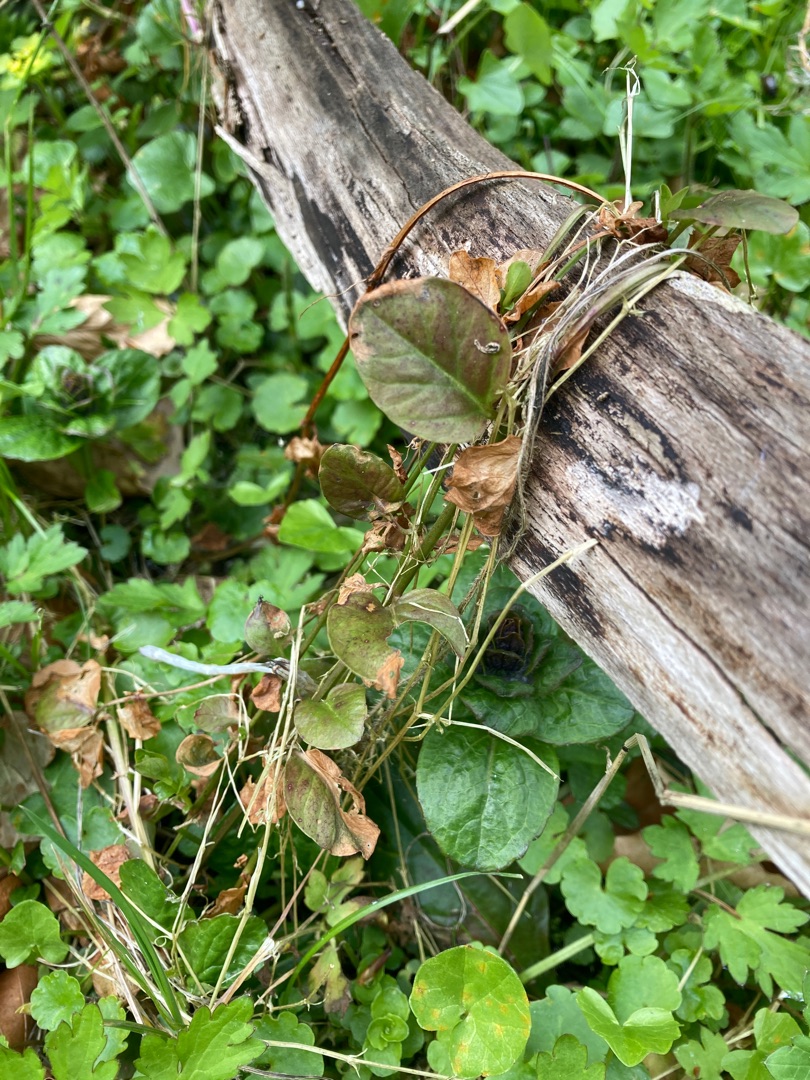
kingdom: Plantae
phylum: Tracheophyta
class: Magnoliopsida
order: Ericales
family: Primulaceae
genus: Lysimachia
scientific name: Lysimachia nummularia
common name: Pengebladet fredløs
